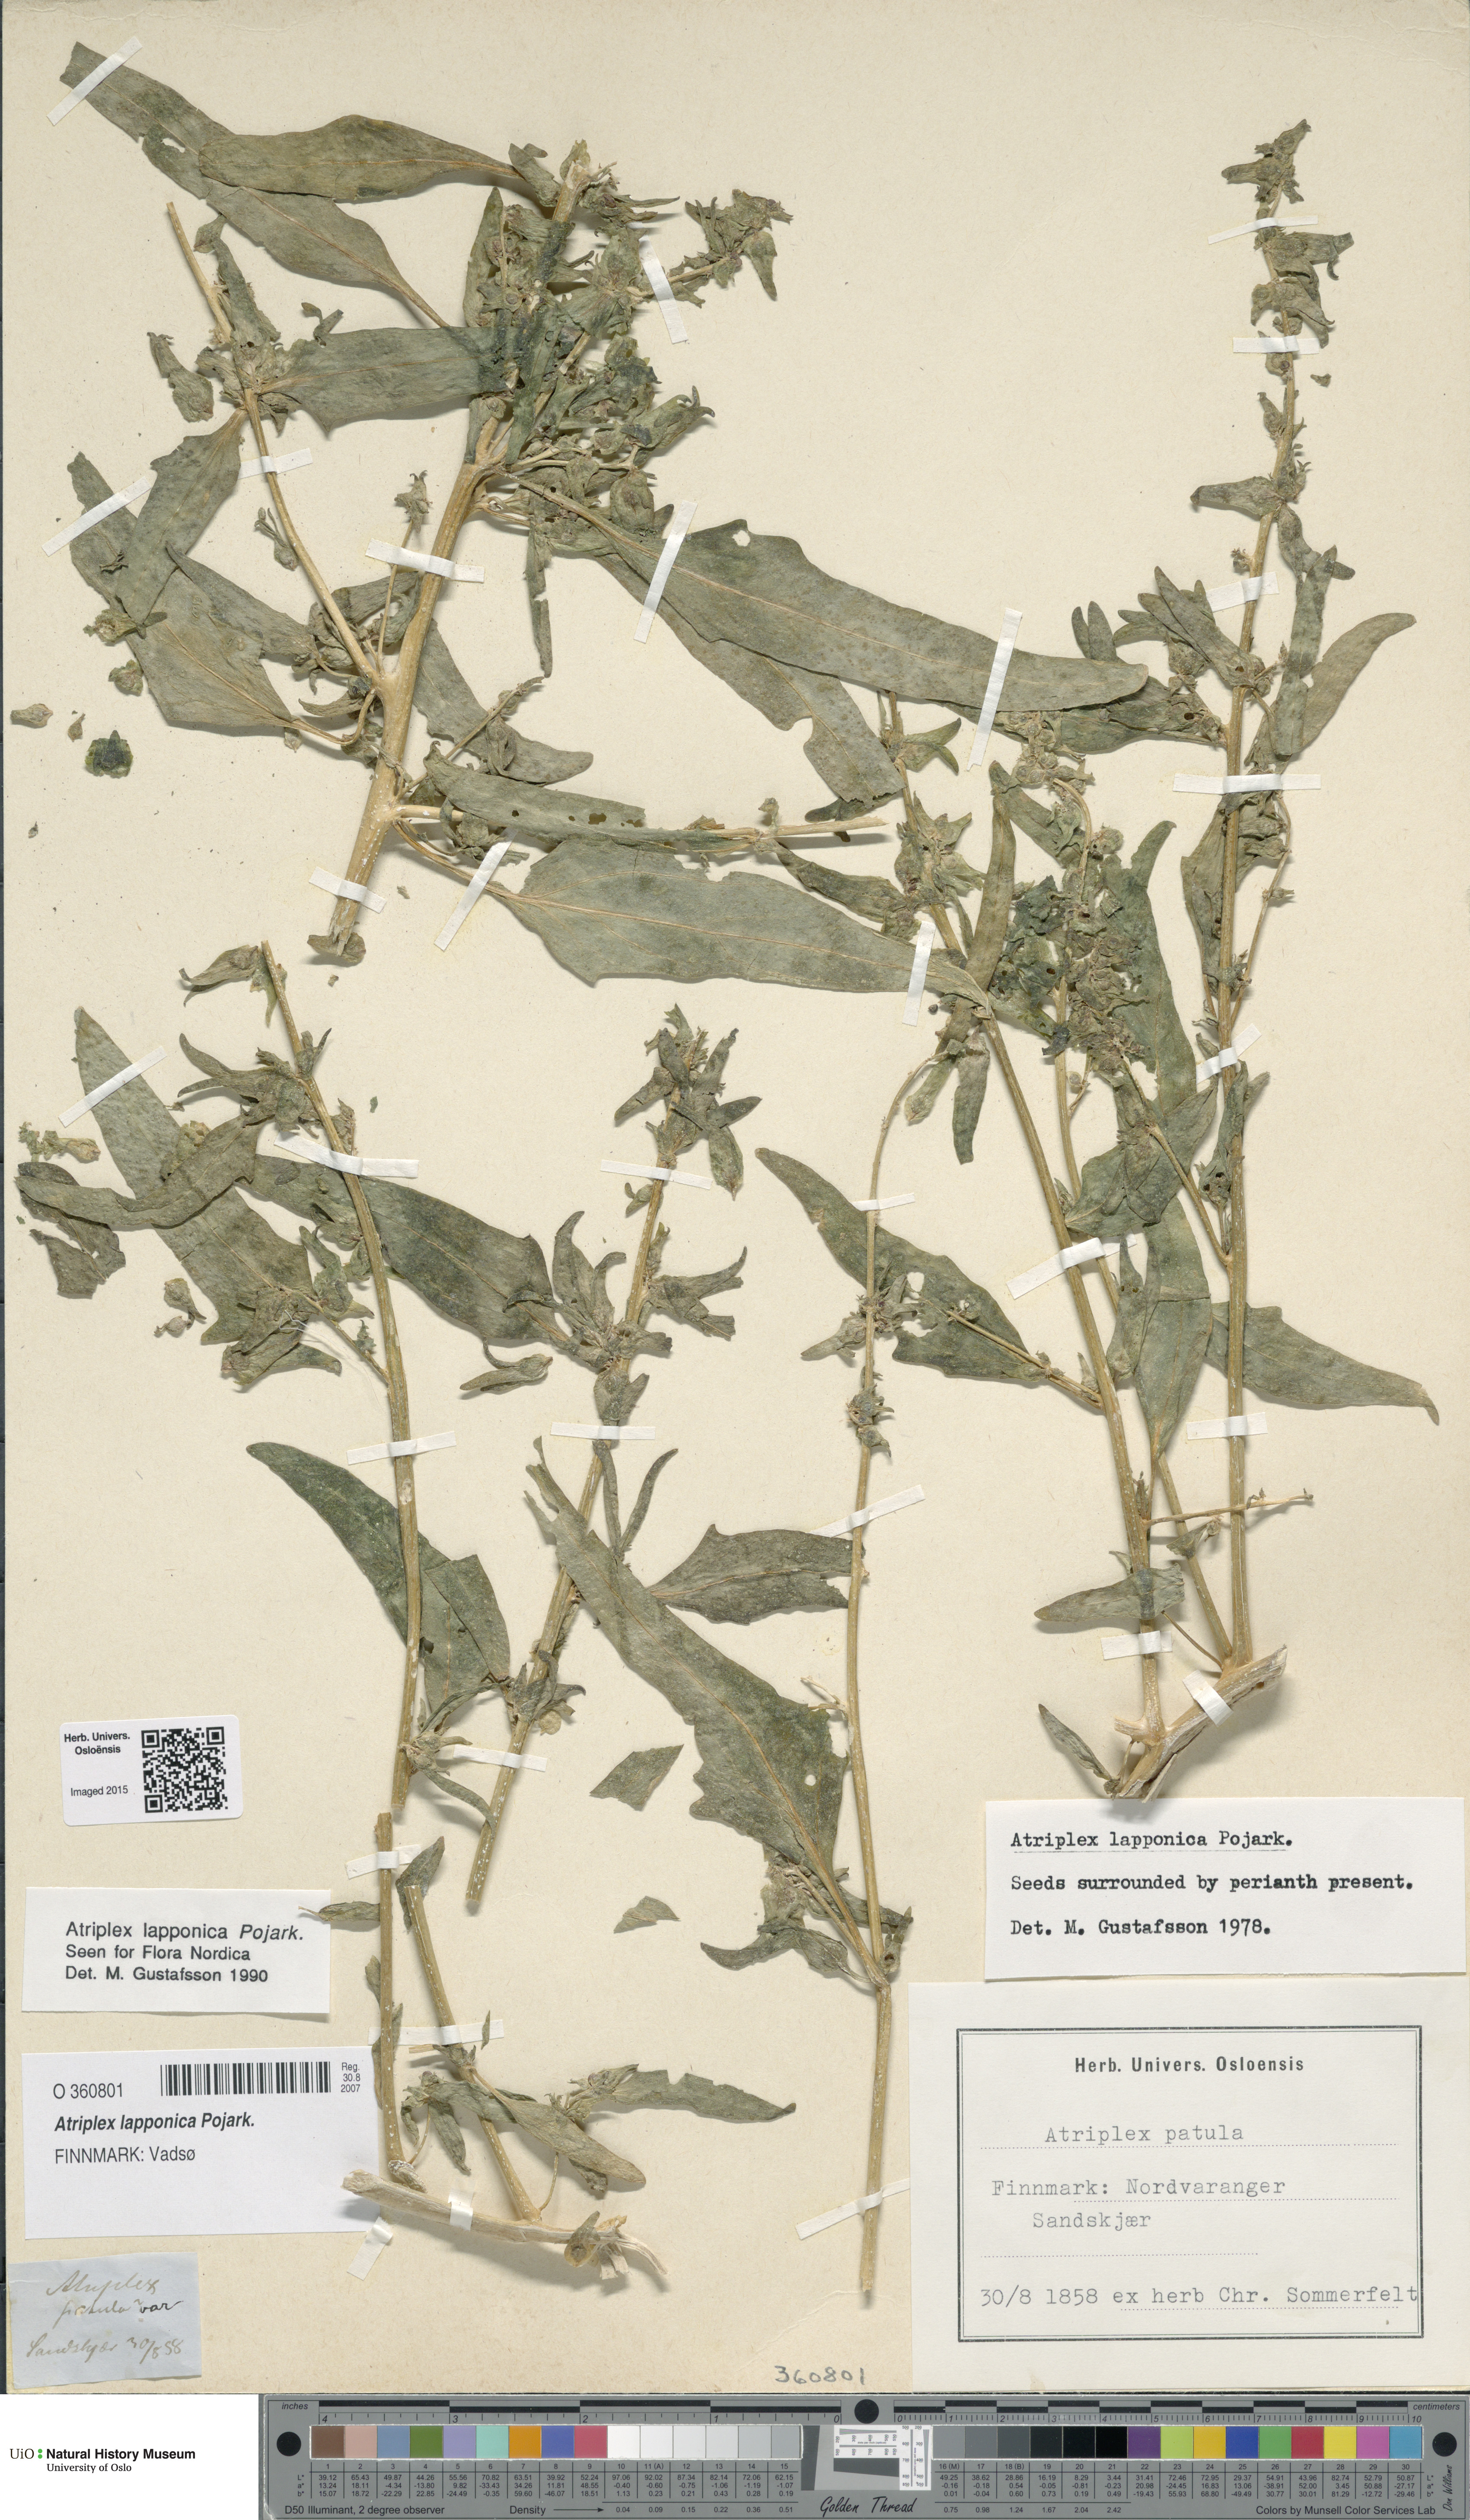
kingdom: Plantae
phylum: Tracheophyta
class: Magnoliopsida
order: Caryophyllales
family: Amaranthaceae
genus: Atriplex
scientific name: Atriplex nudicaulis
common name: Baltic orache
